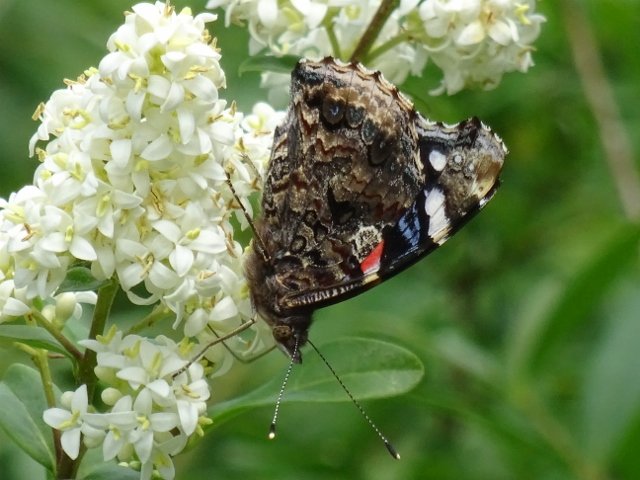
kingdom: Animalia
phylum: Arthropoda
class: Insecta
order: Lepidoptera
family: Nymphalidae
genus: Vanessa
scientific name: Vanessa atalanta
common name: Red Admiral
